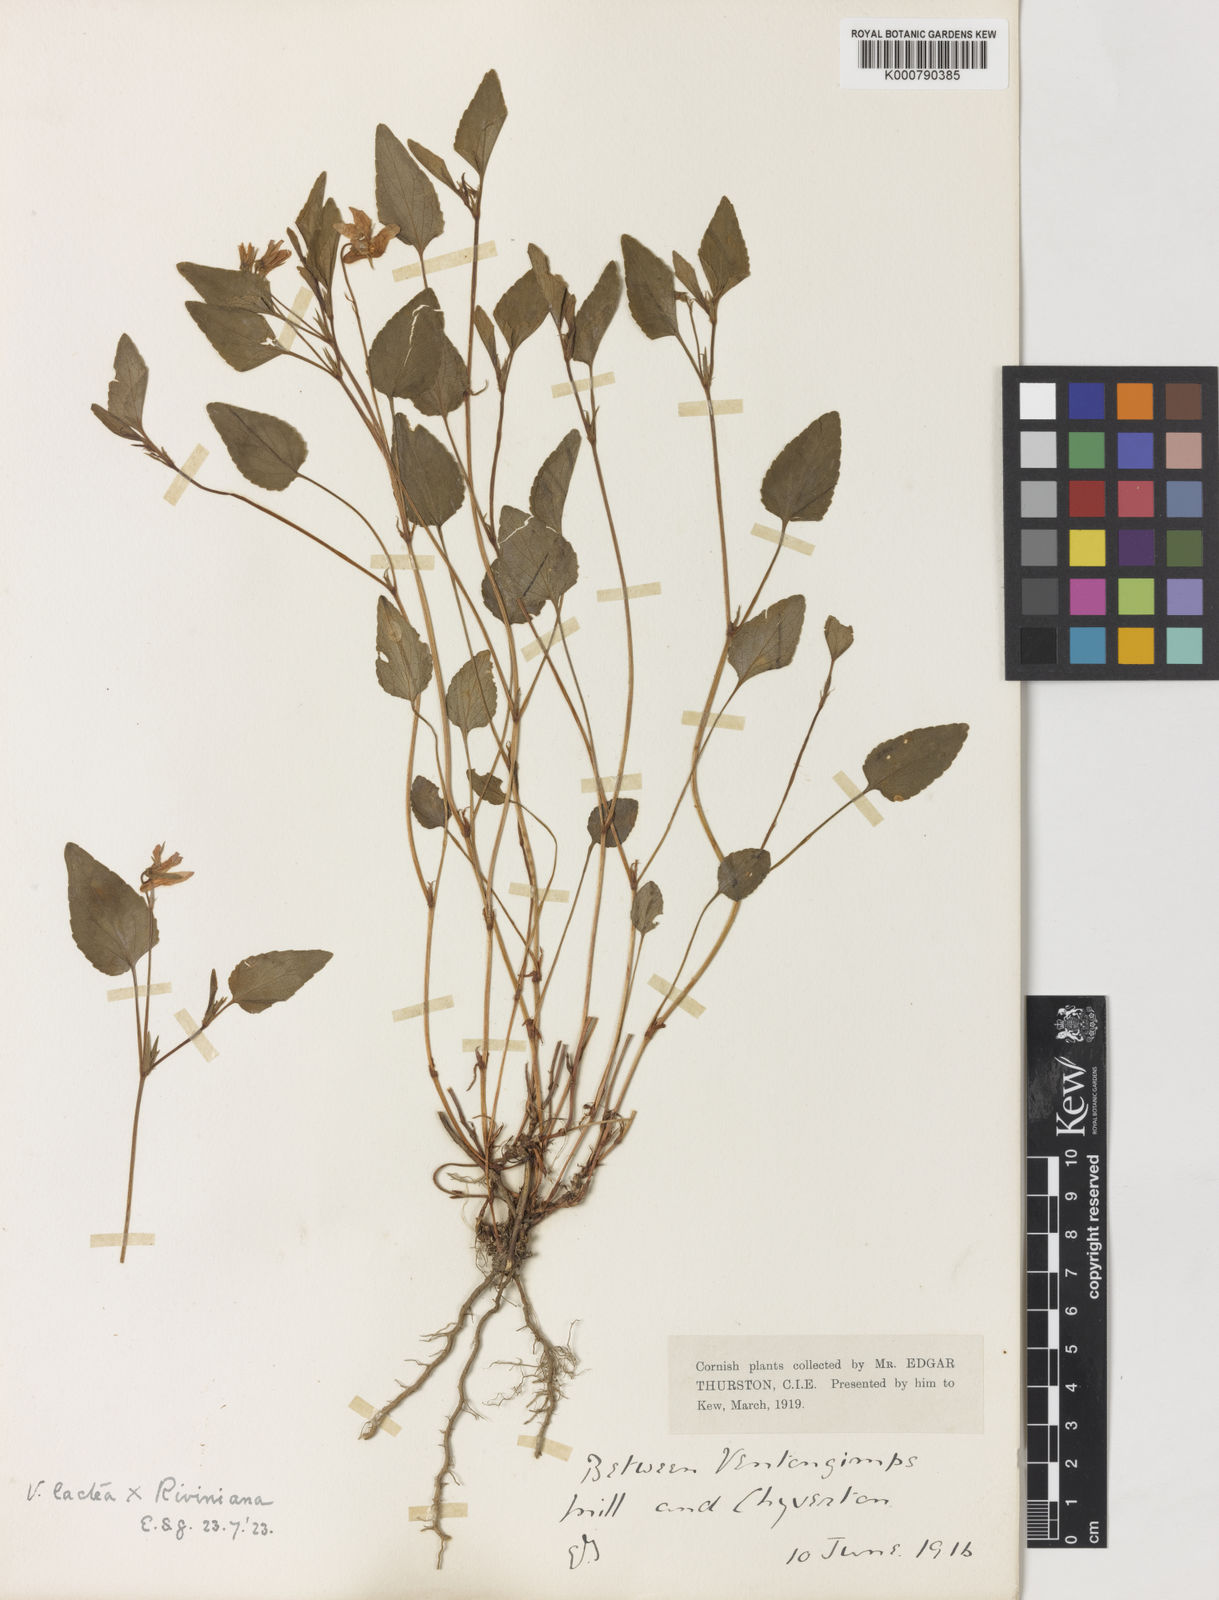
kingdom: Plantae
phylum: Tracheophyta
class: Magnoliopsida
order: Malpighiales
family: Violaceae
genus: Viola
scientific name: Viola lactea
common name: Pale dog-violet
